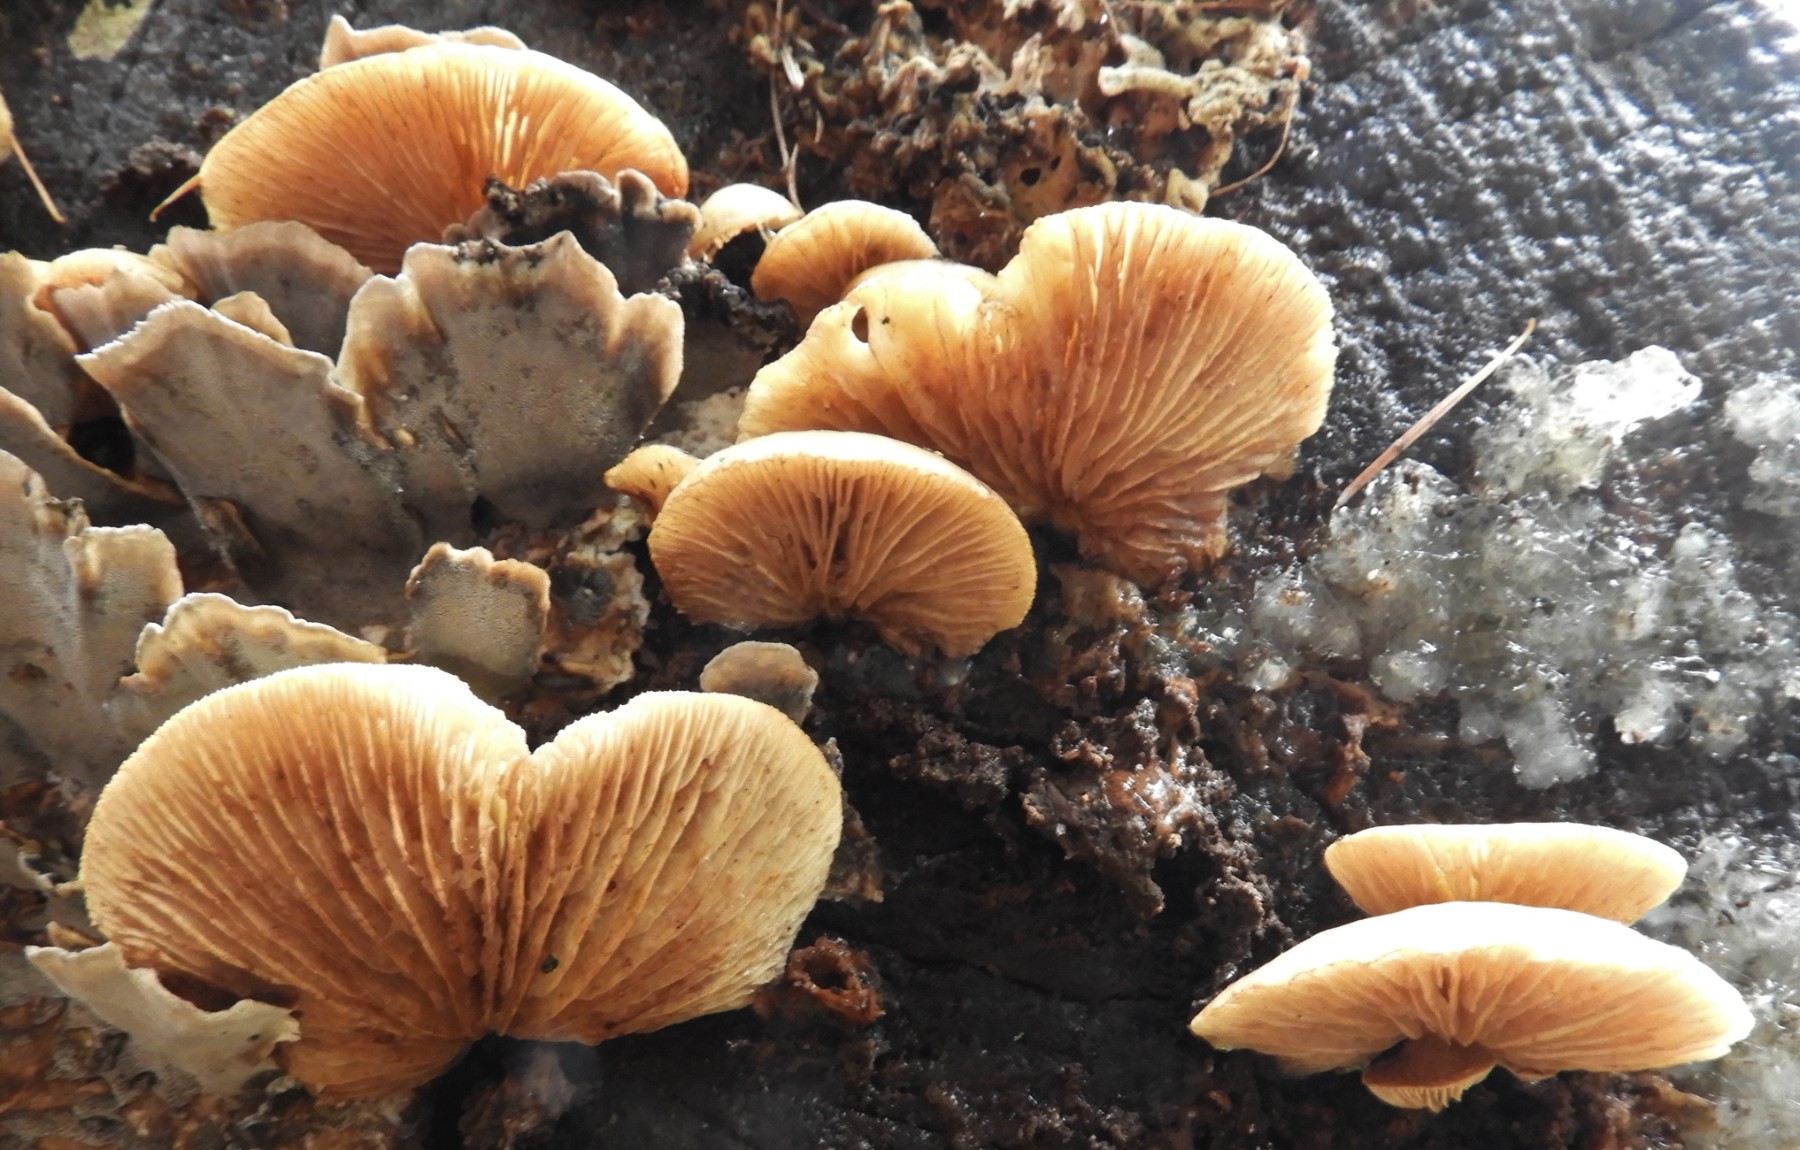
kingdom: Fungi
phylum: Basidiomycota
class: Agaricomycetes
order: Agaricales
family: Crepidotaceae
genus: Crepidotus
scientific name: Crepidotus mollis
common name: blød muslingesvamp
